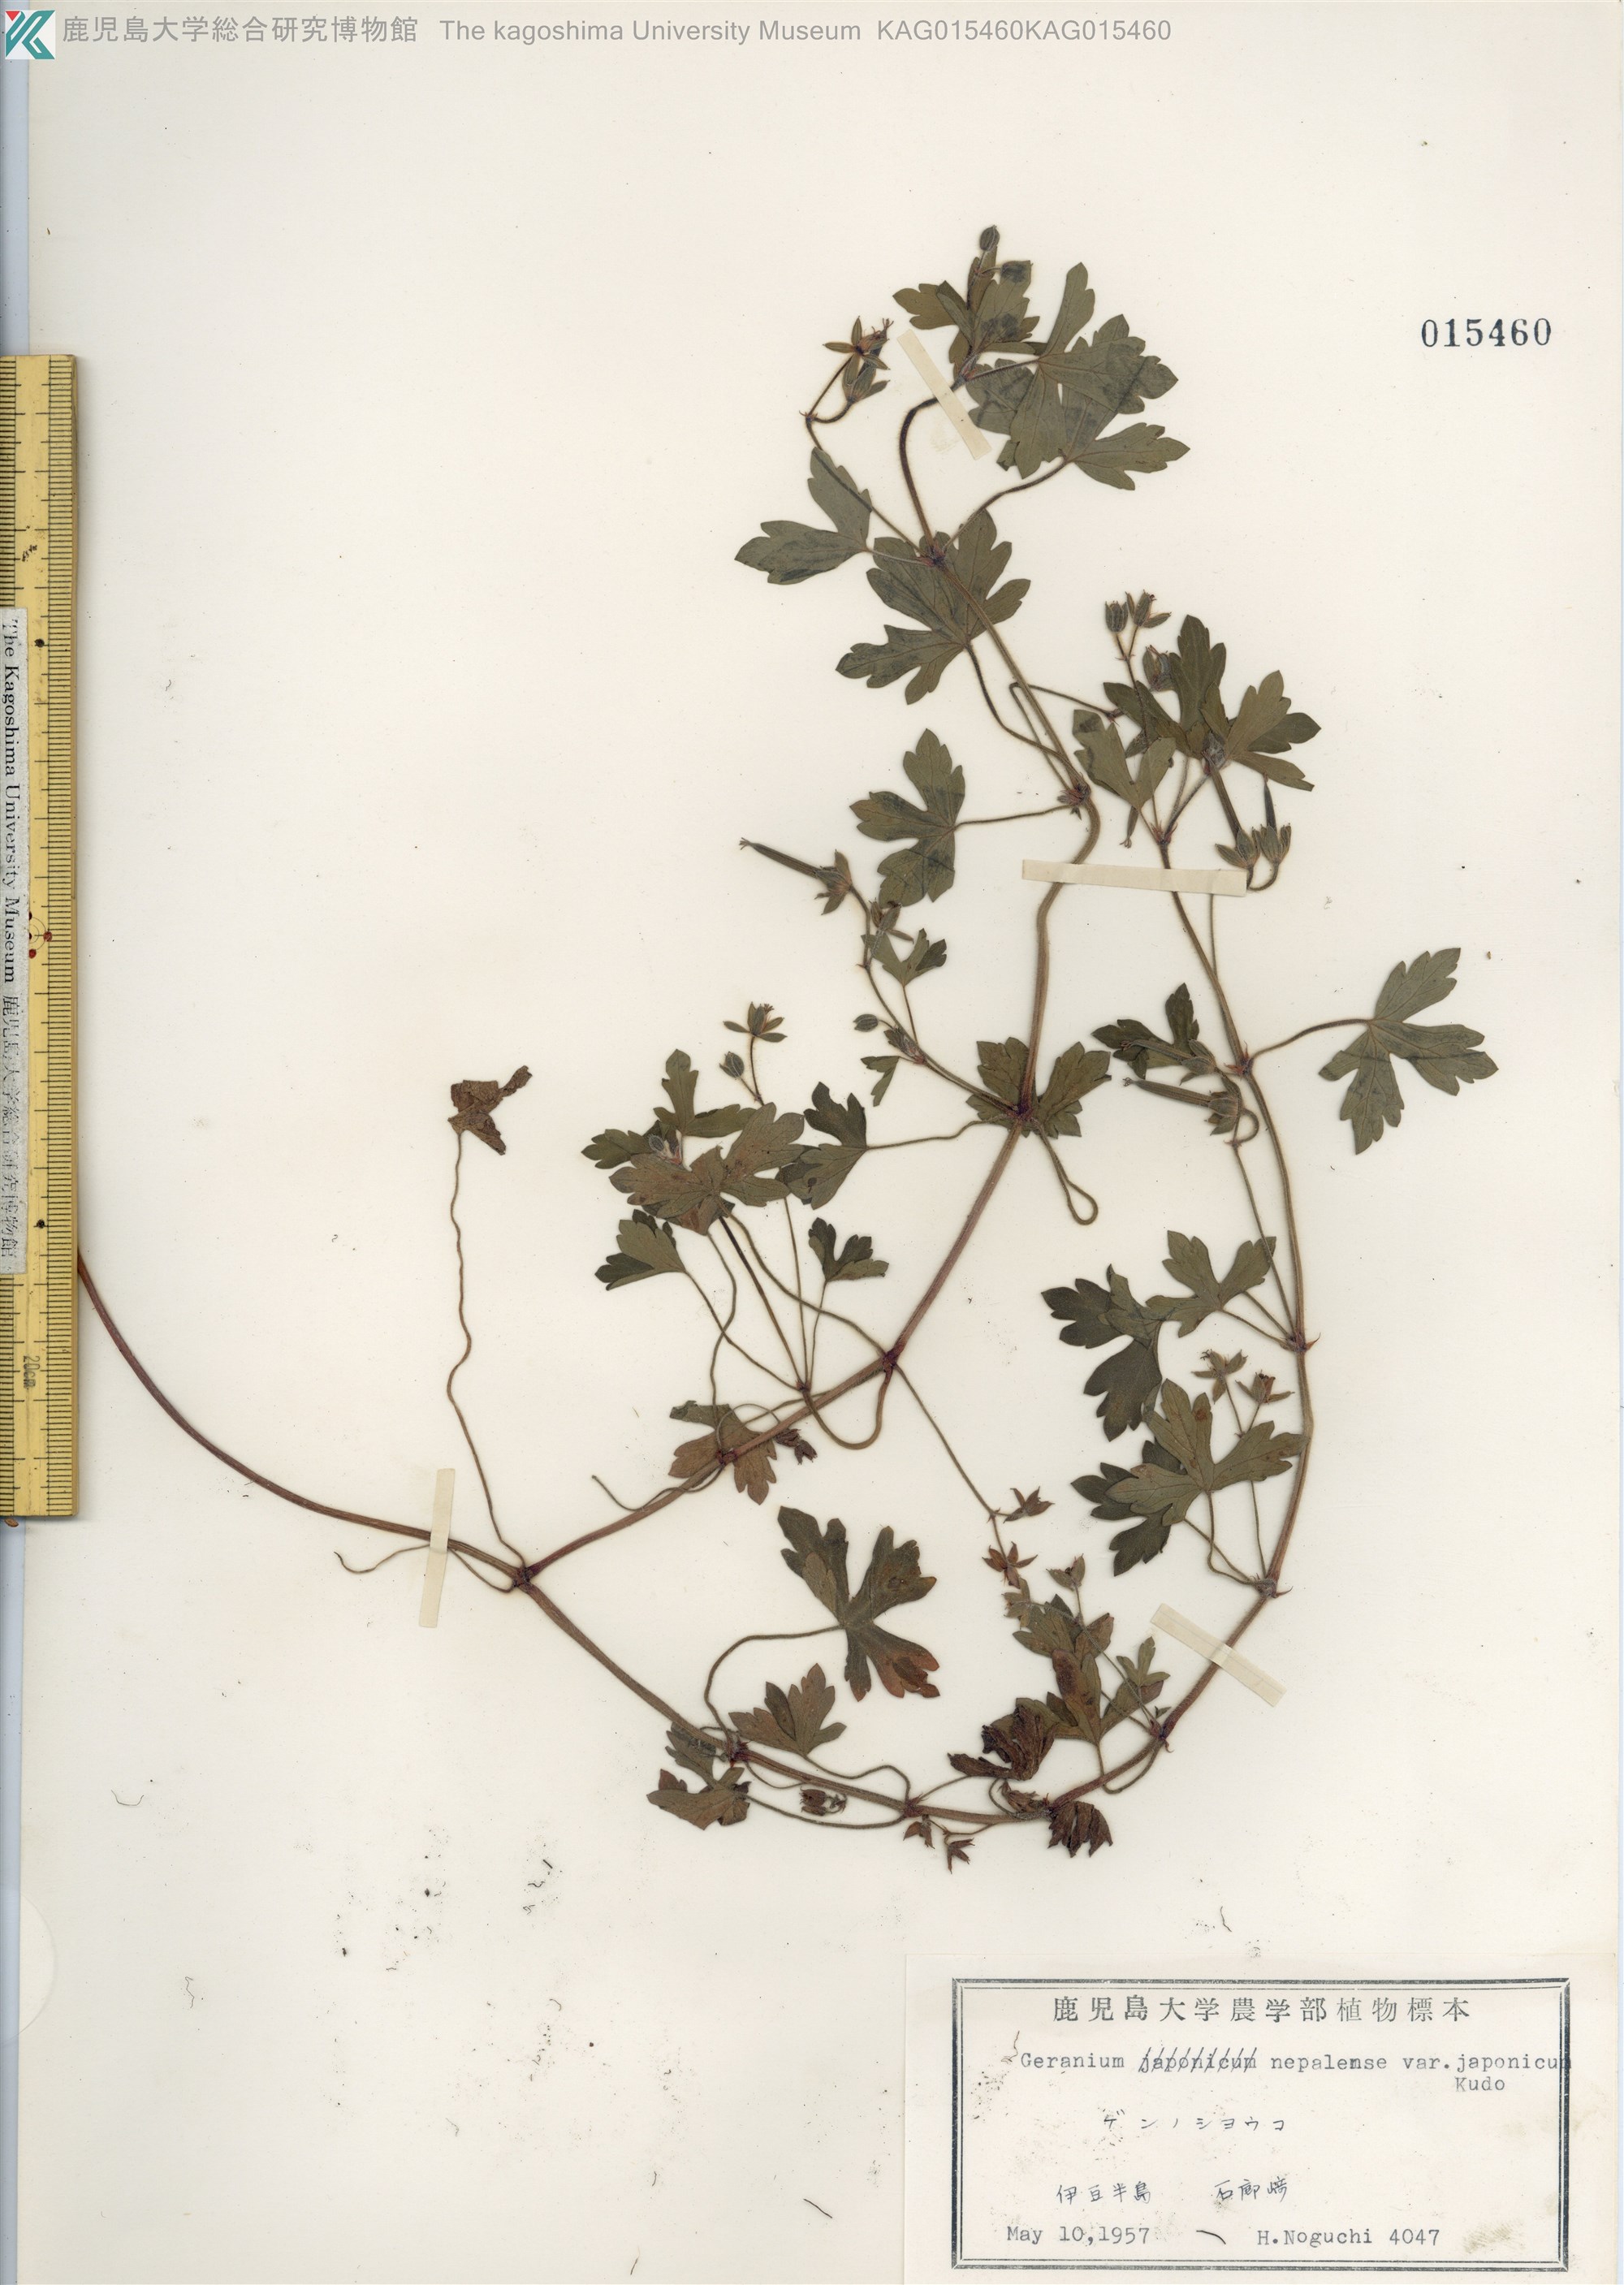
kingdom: Plantae
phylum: Tracheophyta
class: Magnoliopsida
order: Geraniales
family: Geraniaceae
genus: Geranium
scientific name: Geranium thunbergii
